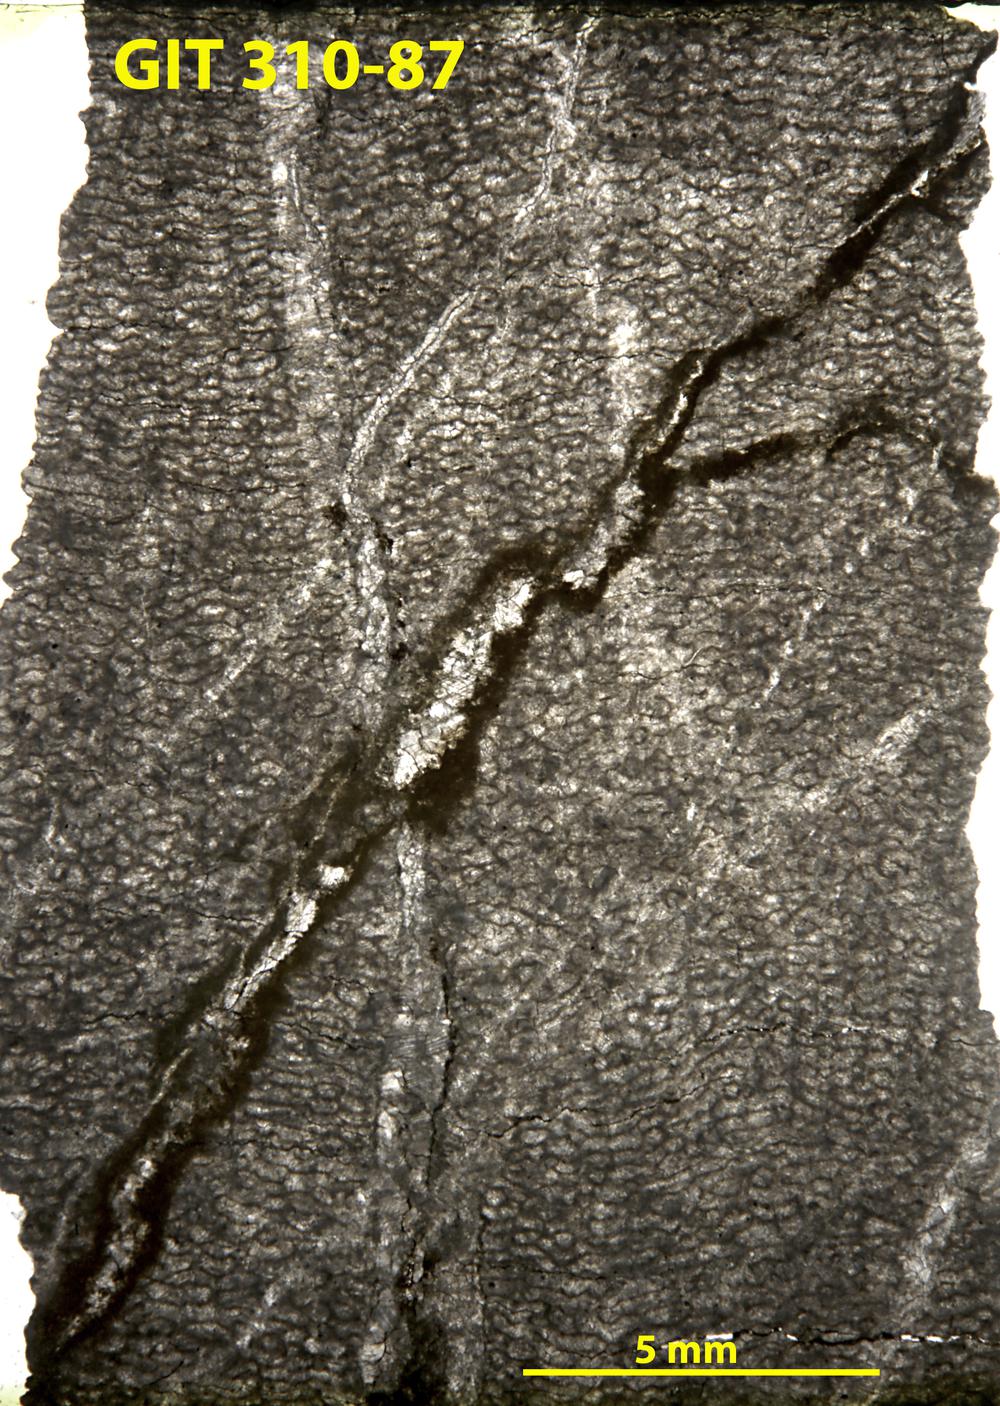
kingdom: Animalia
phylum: Porifera
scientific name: Porifera
